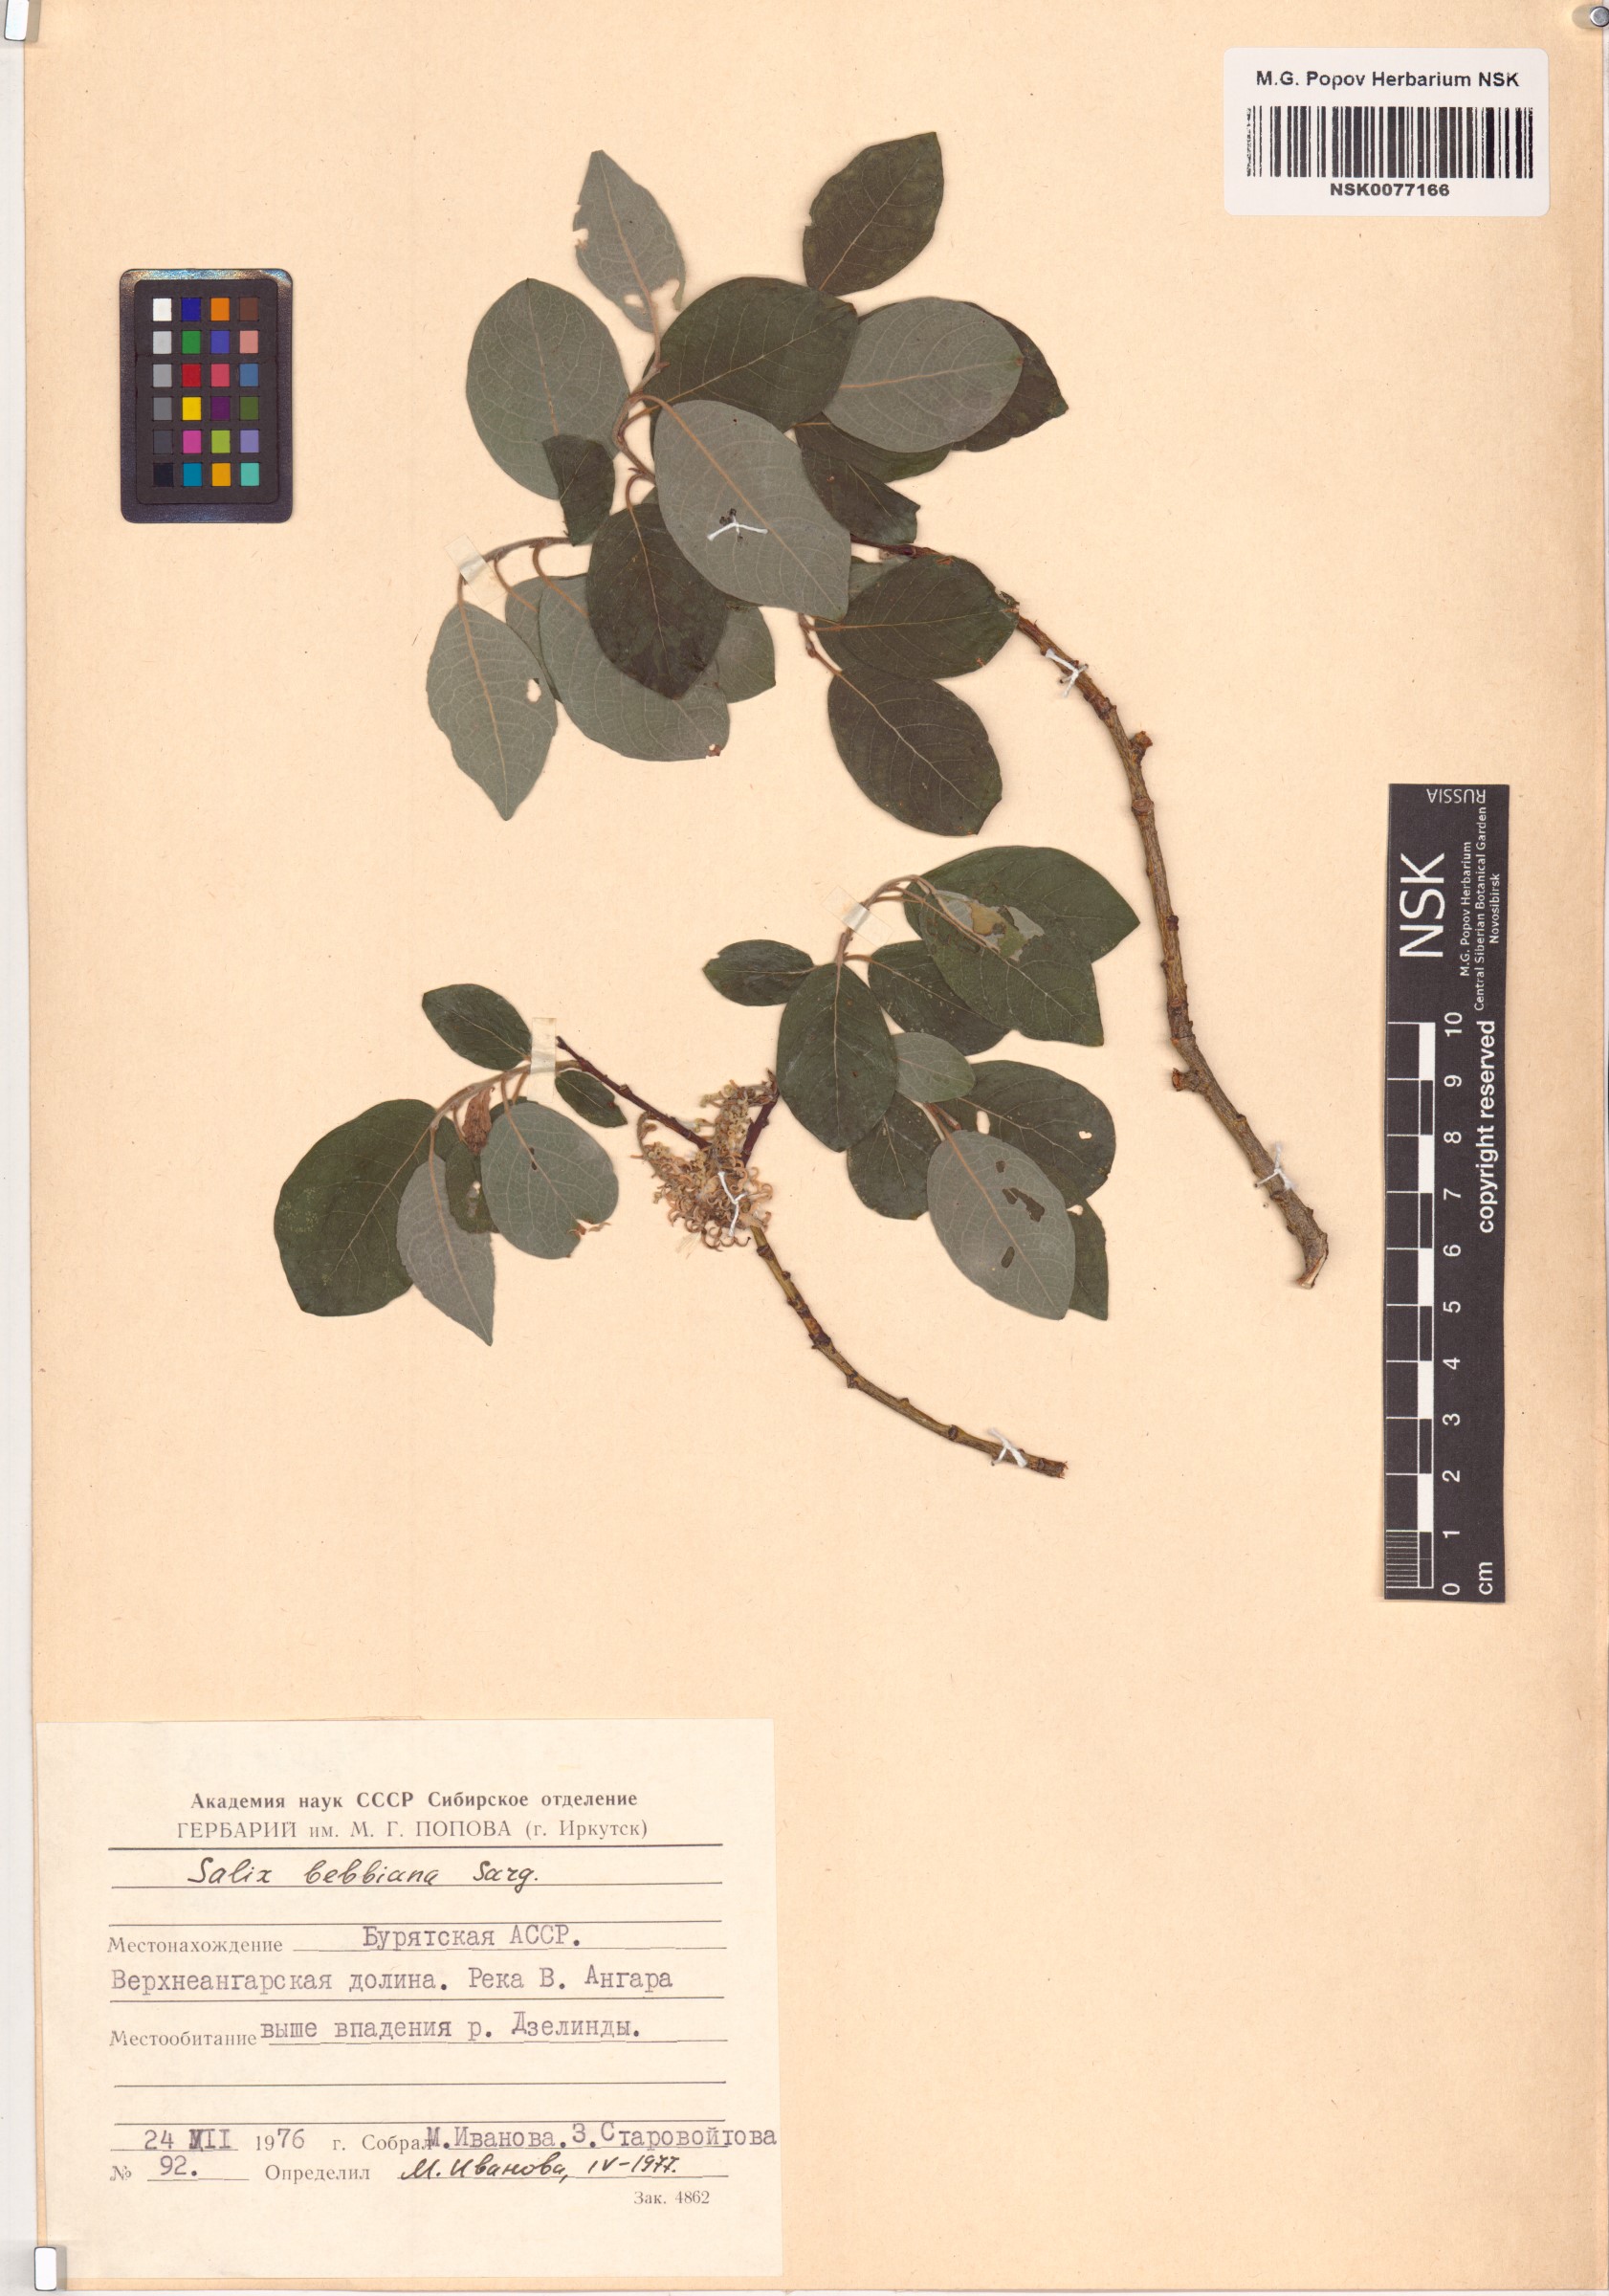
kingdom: Plantae
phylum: Tracheophyta
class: Magnoliopsida
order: Malpighiales
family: Salicaceae
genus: Salix
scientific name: Salix bebbiana
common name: Bebb's willow
